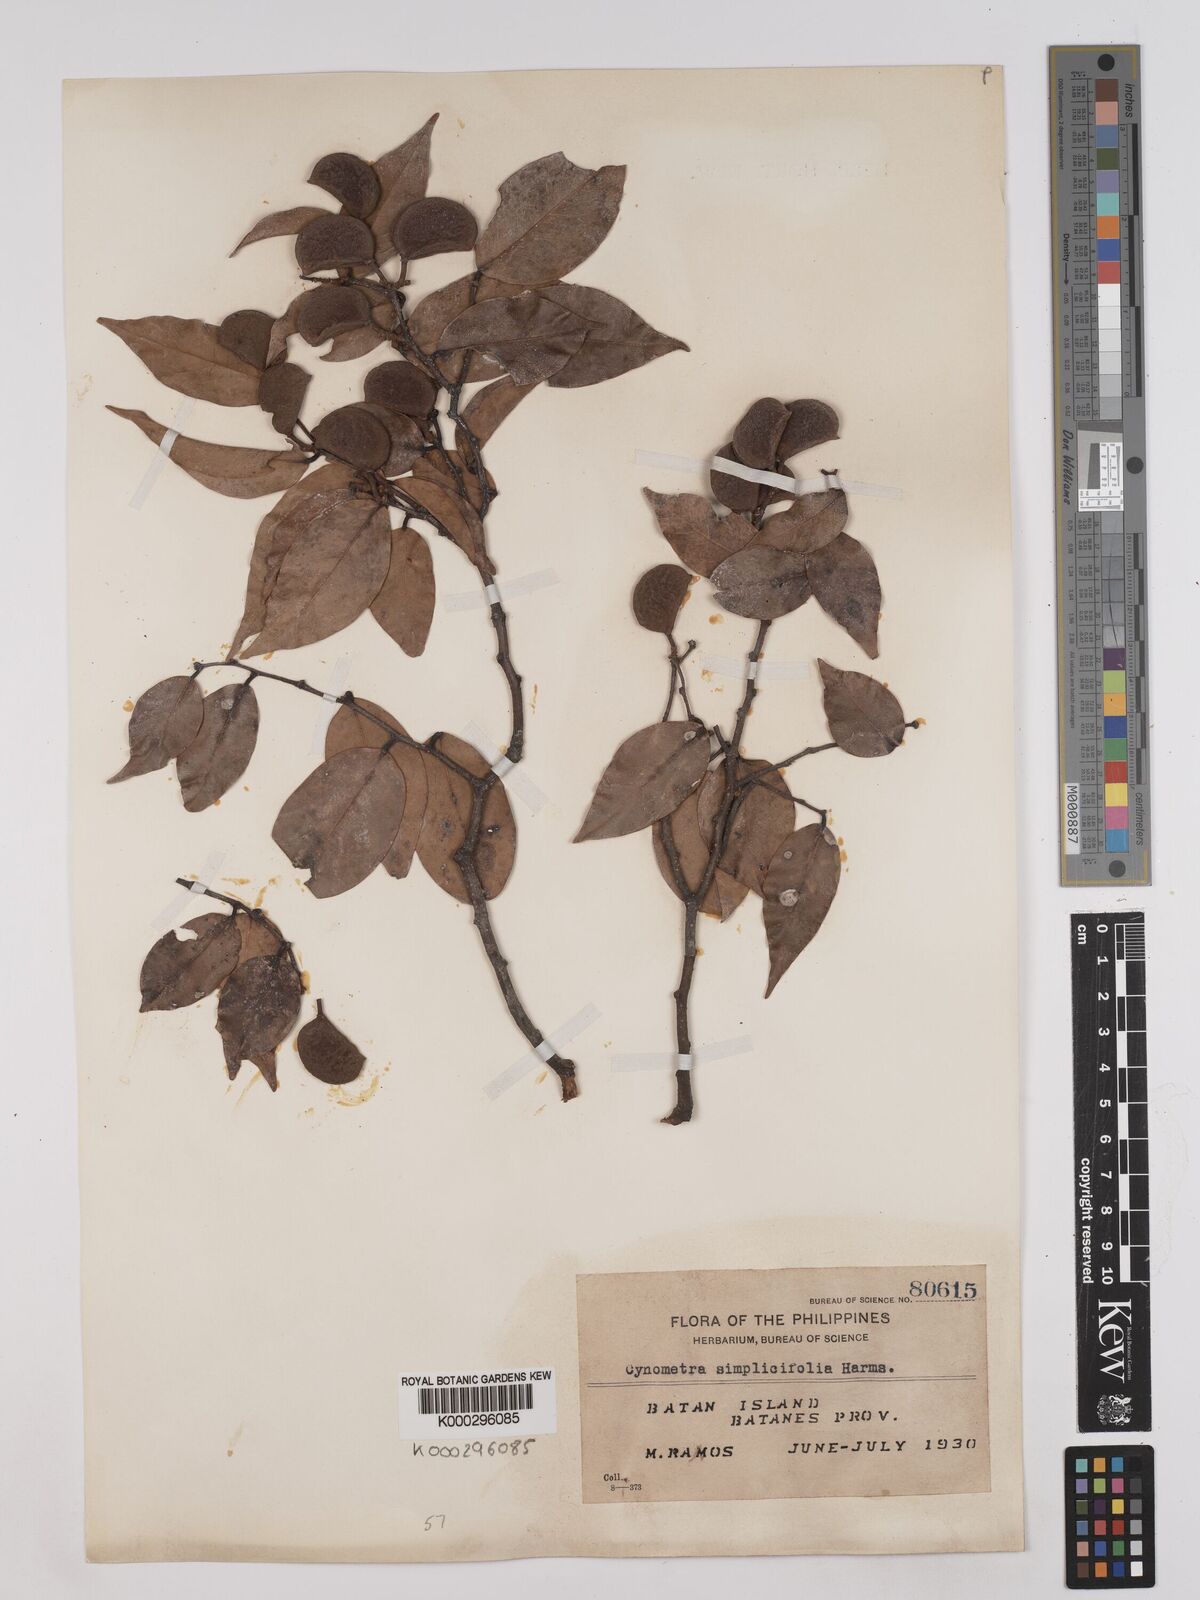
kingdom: Plantae
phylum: Tracheophyta
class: Magnoliopsida
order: Fabales
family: Fabaceae
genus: Cynometra
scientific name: Cynometra simplicifolia
